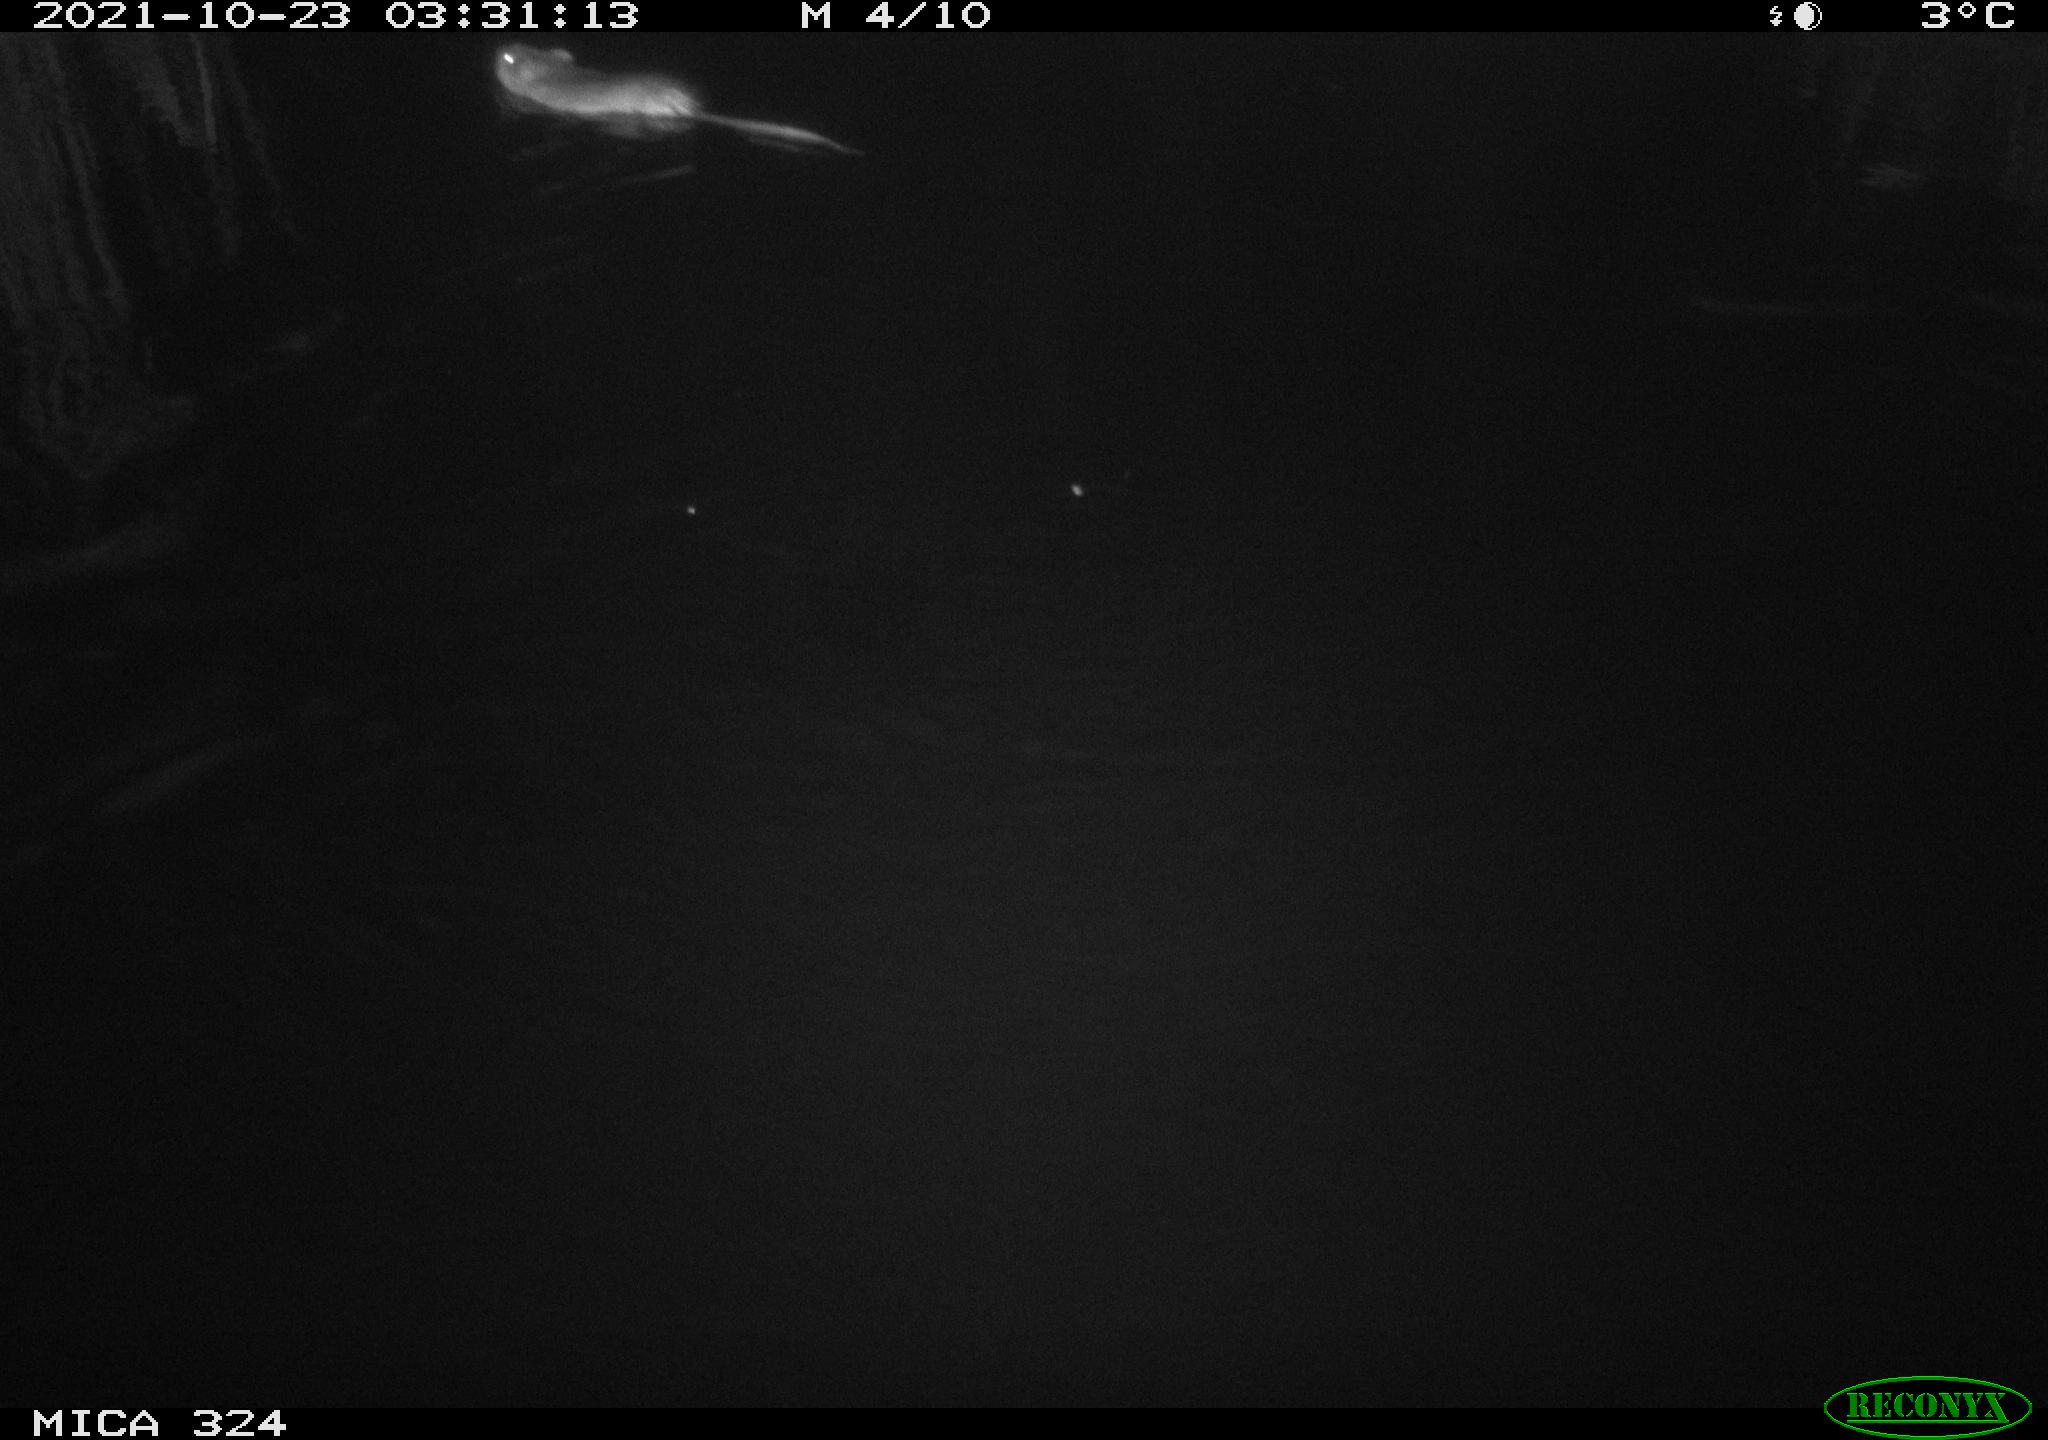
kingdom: Animalia
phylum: Chordata
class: Mammalia
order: Rodentia
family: Cricetidae
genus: Ondatra
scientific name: Ondatra zibethicus
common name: Muskrat
